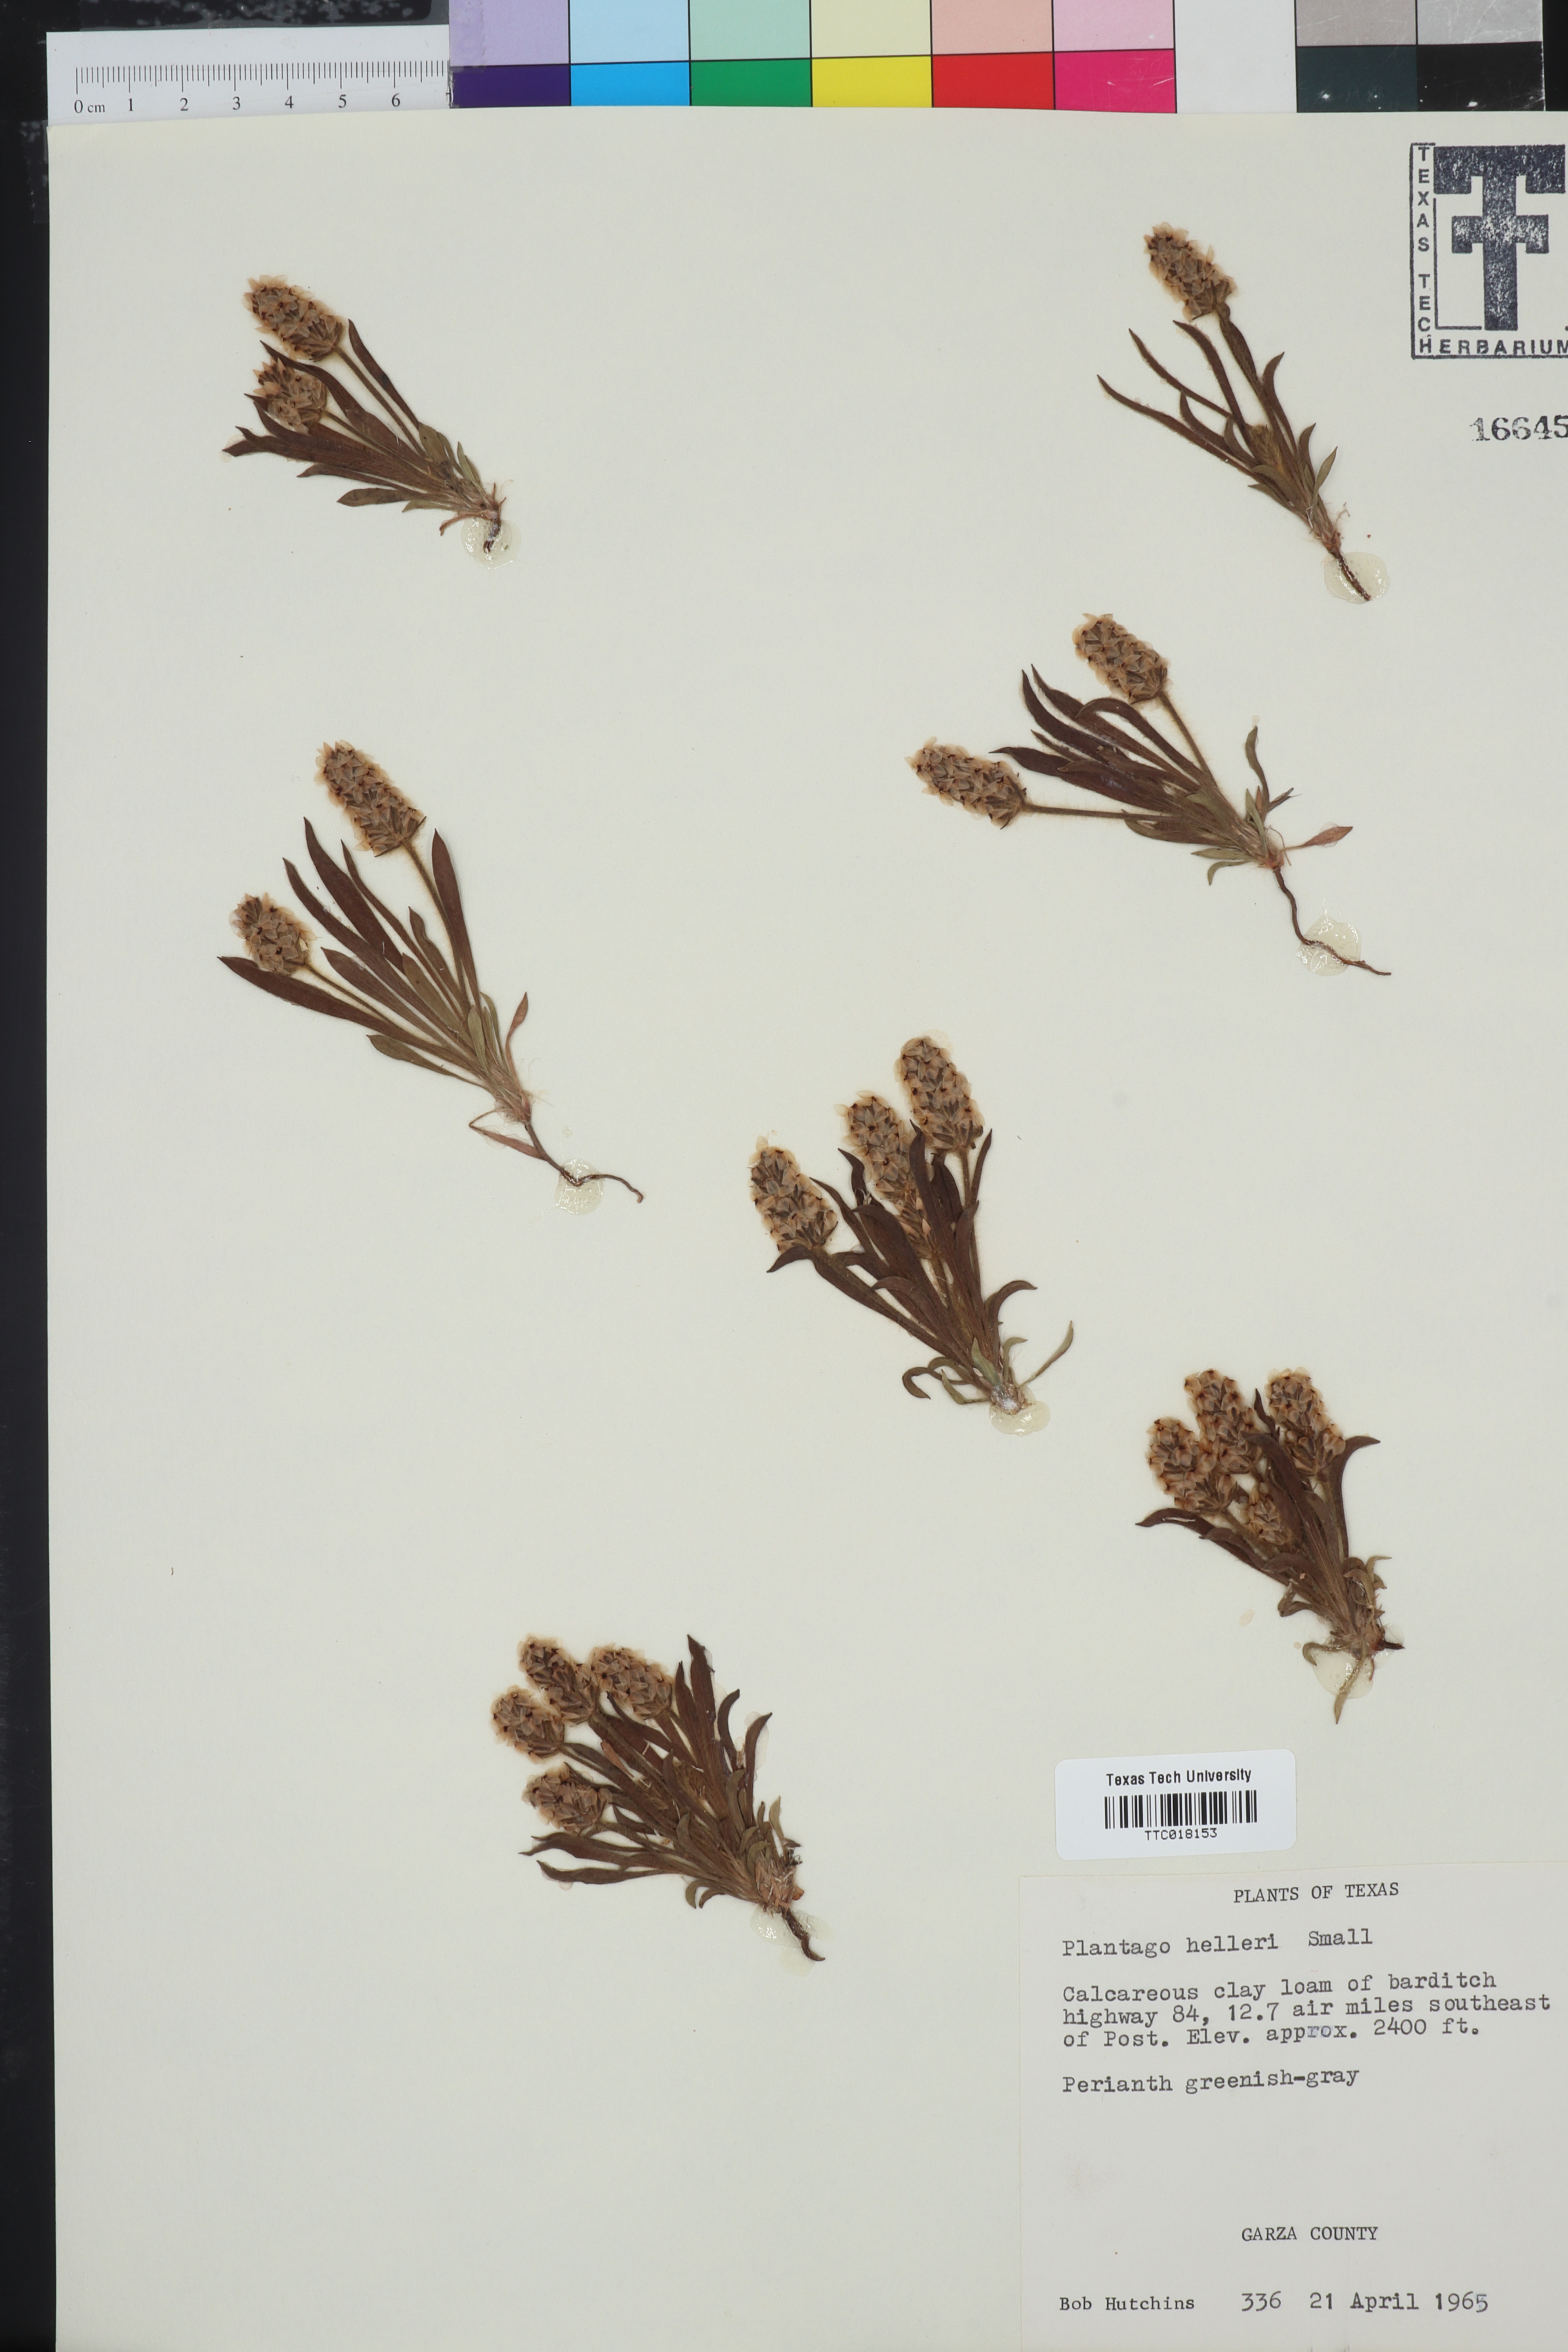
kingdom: Plantae
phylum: Tracheophyta
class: Magnoliopsida
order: Lamiales
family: Plantaginaceae
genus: Plantago
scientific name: Plantago helleri
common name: Heller's plantain
